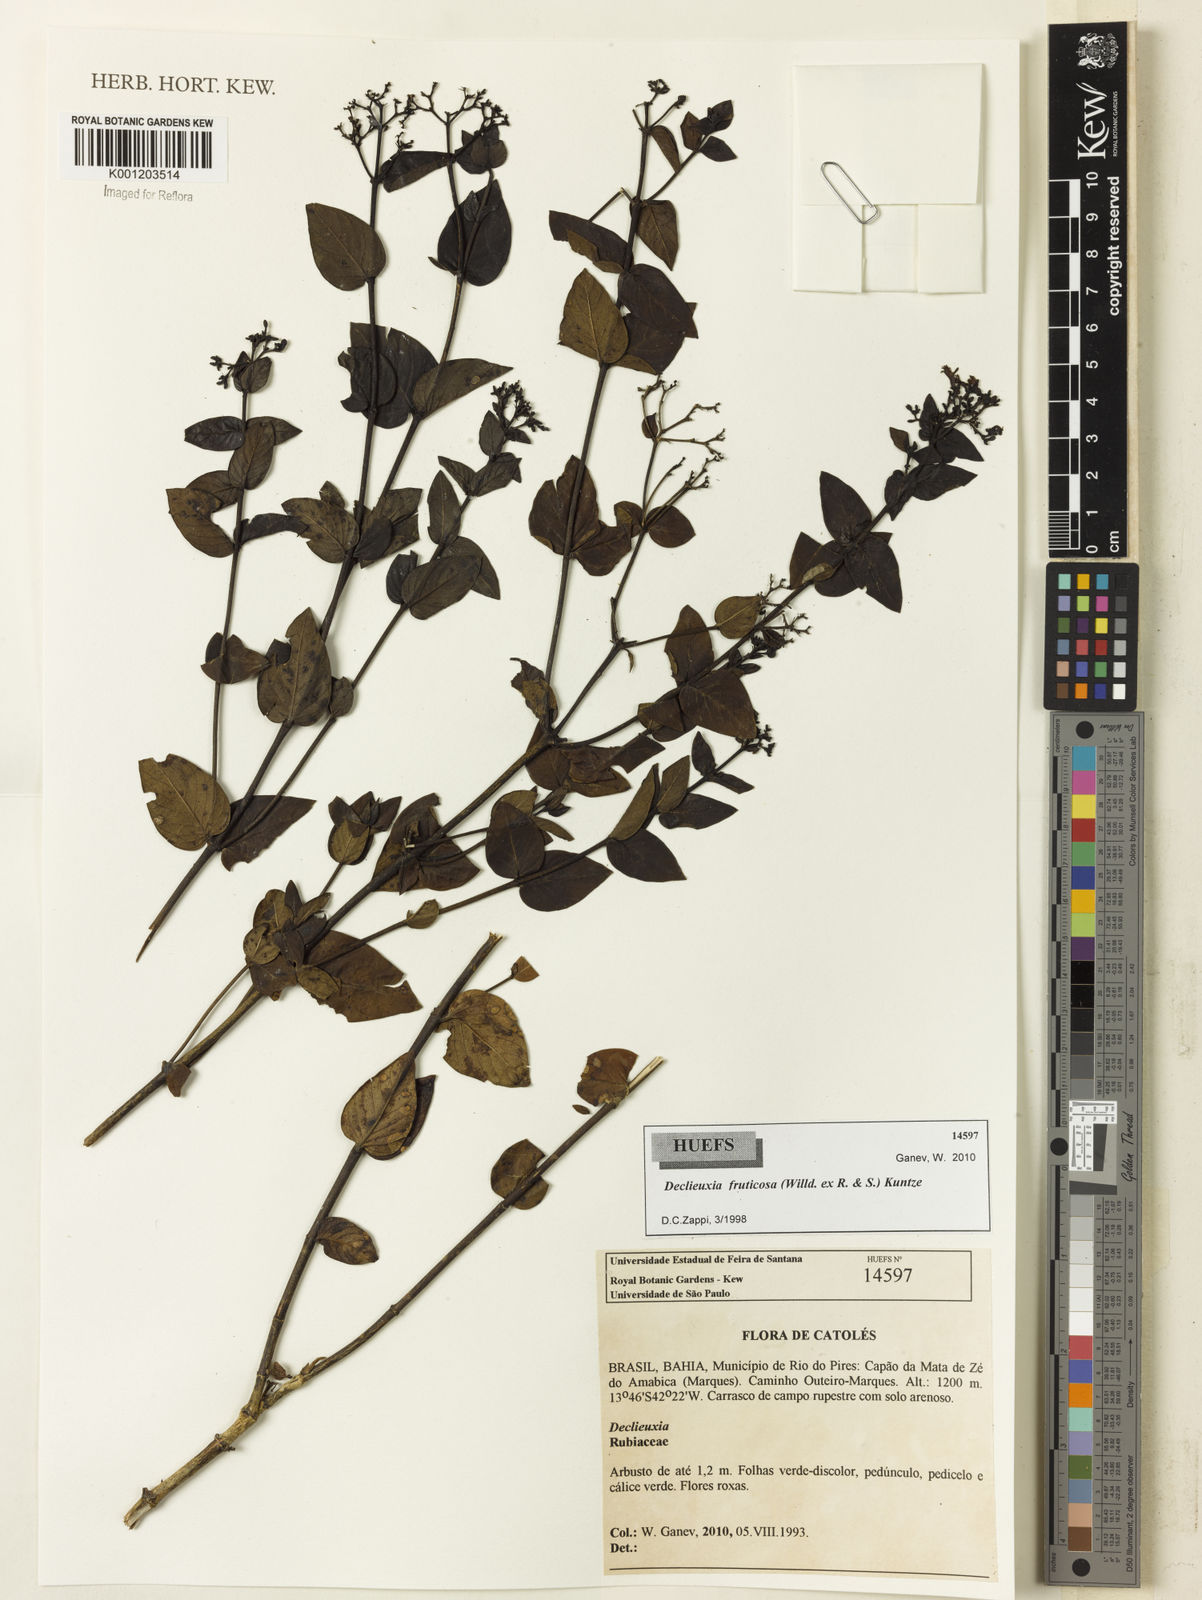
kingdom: Plantae
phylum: Tracheophyta
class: Magnoliopsida
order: Gentianales
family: Rubiaceae
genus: Declieuxia
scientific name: Declieuxia fruticosa
